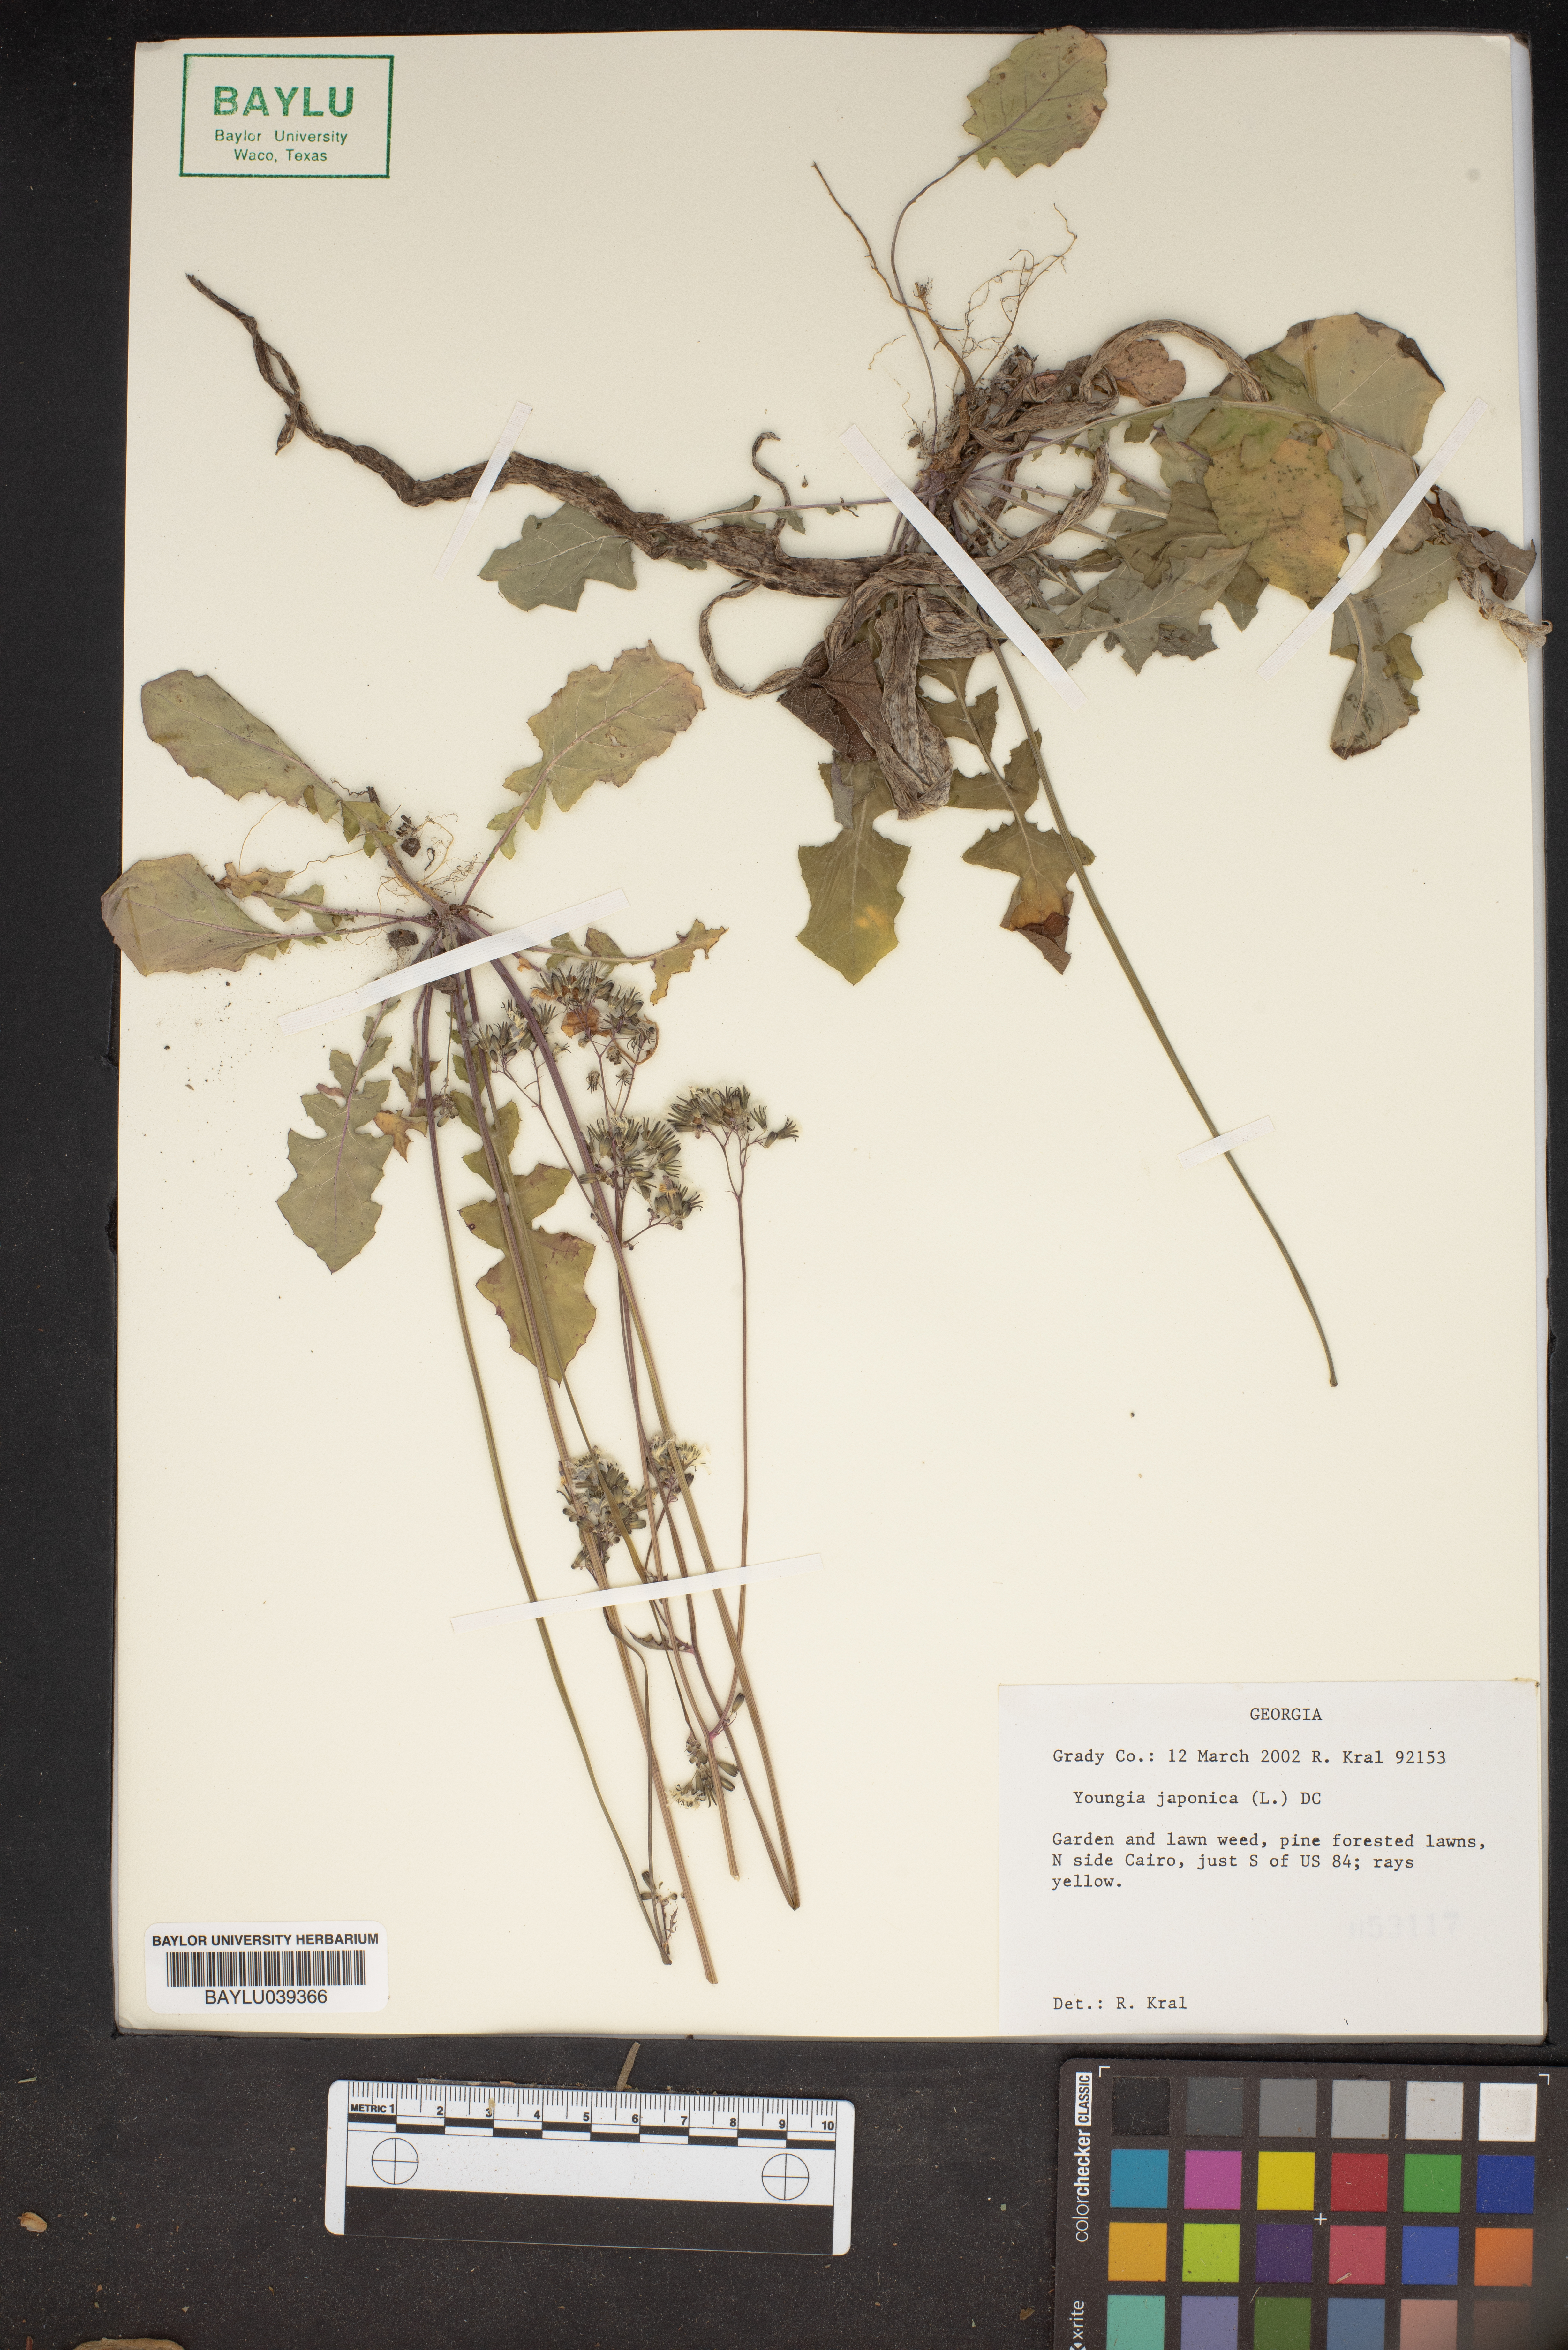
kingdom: Plantae
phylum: Tracheophyta
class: Magnoliopsida
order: Asterales
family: Asteraceae
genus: Youngia
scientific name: Youngia japonica
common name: Oriental false hawksbeard
